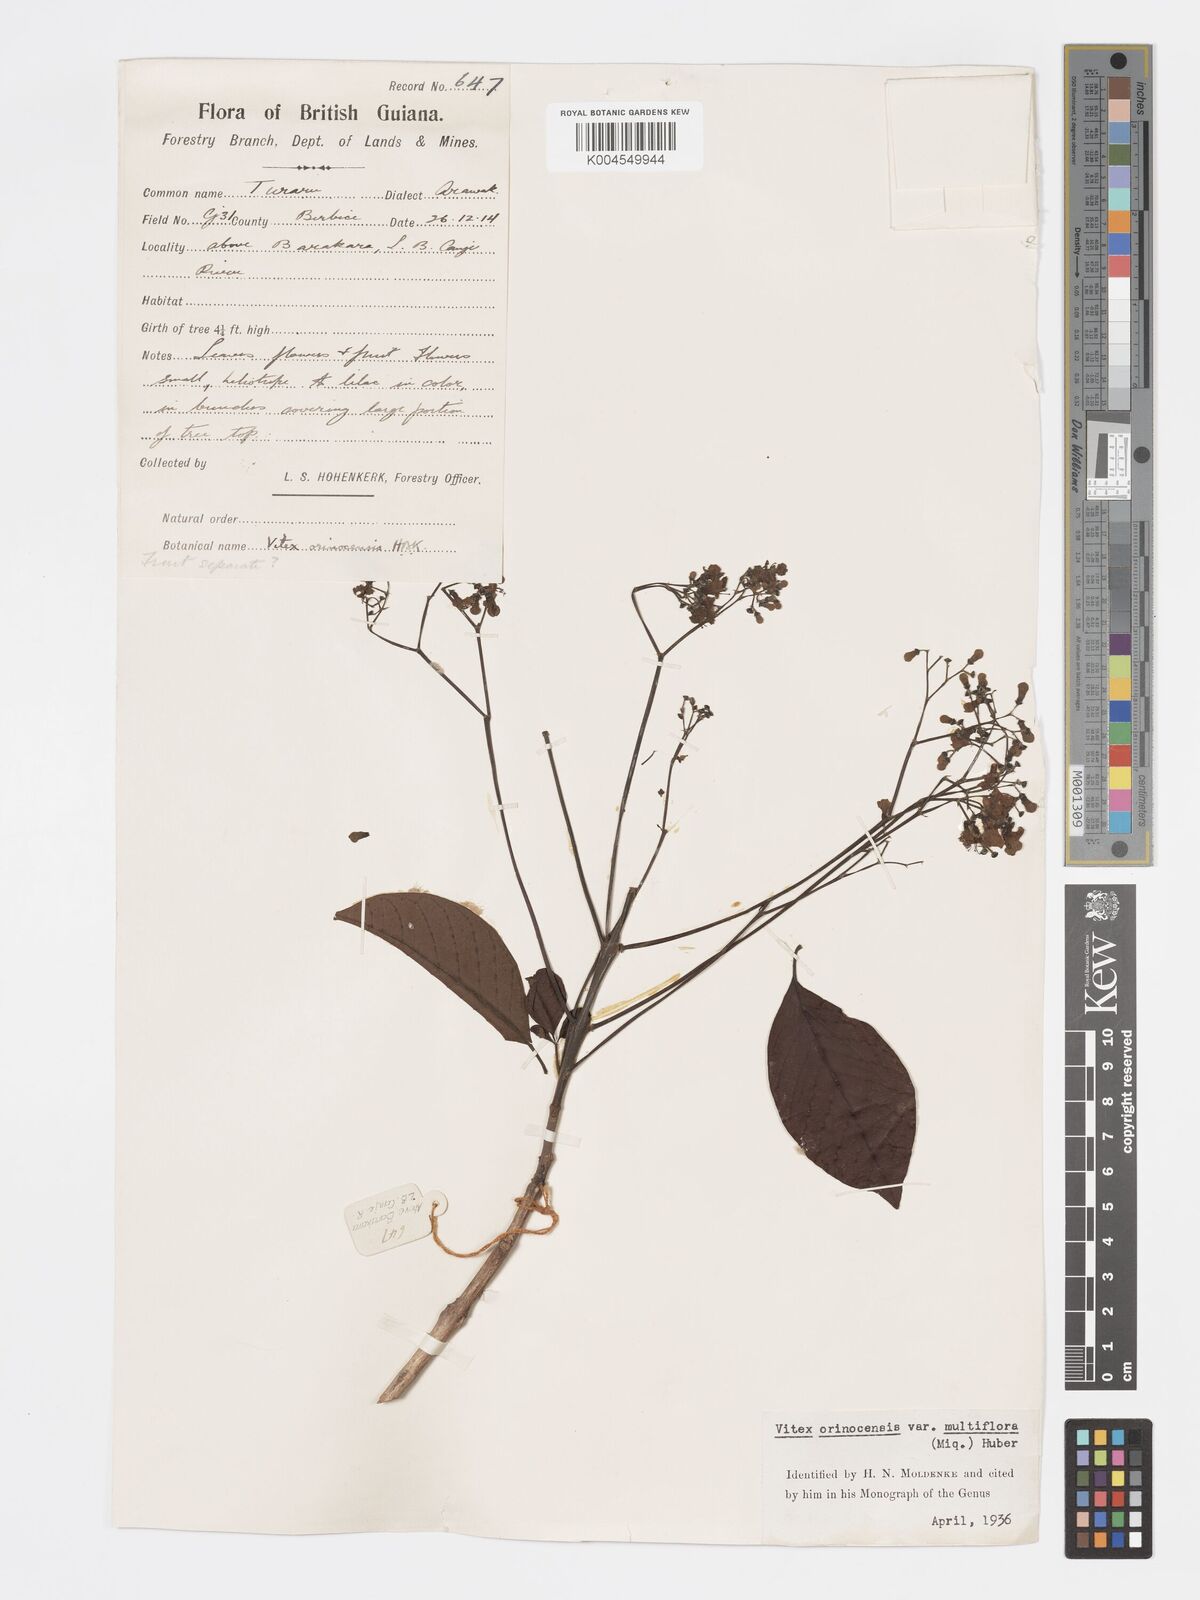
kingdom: Plantae
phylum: Tracheophyta
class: Magnoliopsida
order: Lamiales
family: Lamiaceae
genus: Vitex
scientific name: Vitex orinocensis
